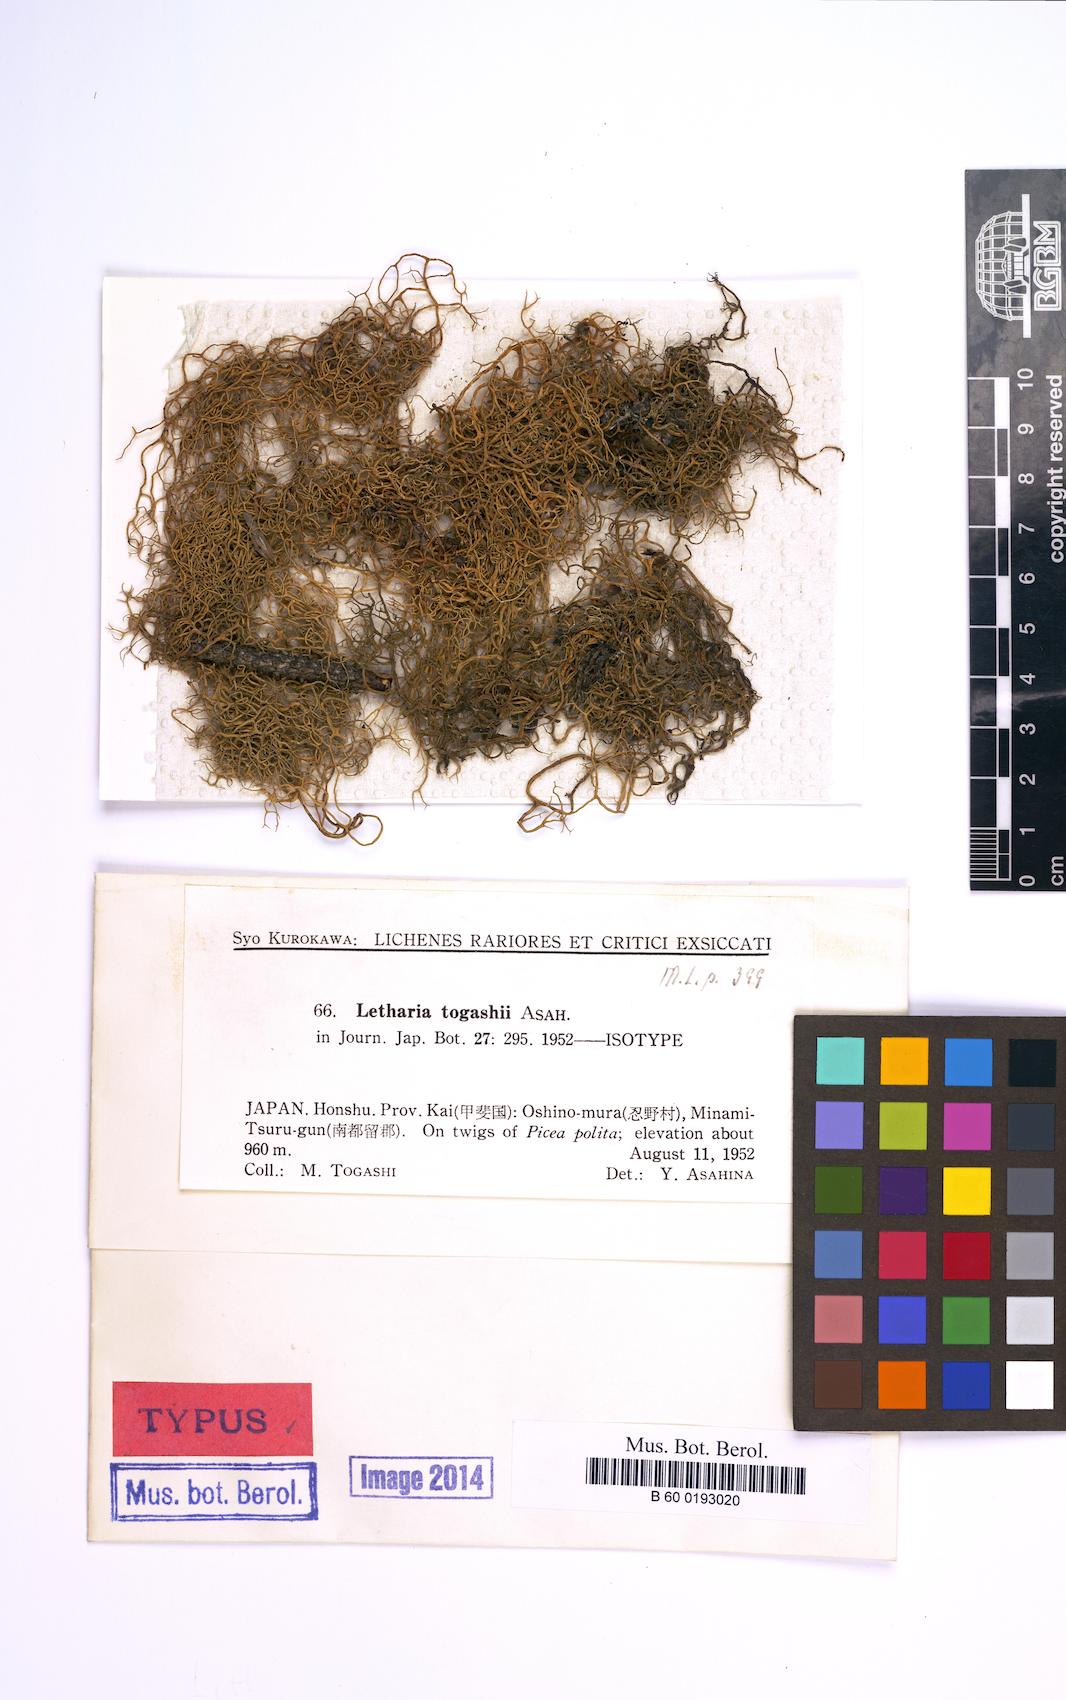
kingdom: Fungi
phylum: Ascomycota
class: Lecanoromycetes
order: Lecanorales
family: Parmeliaceae
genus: Lethariella
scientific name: Lethariella togashii
